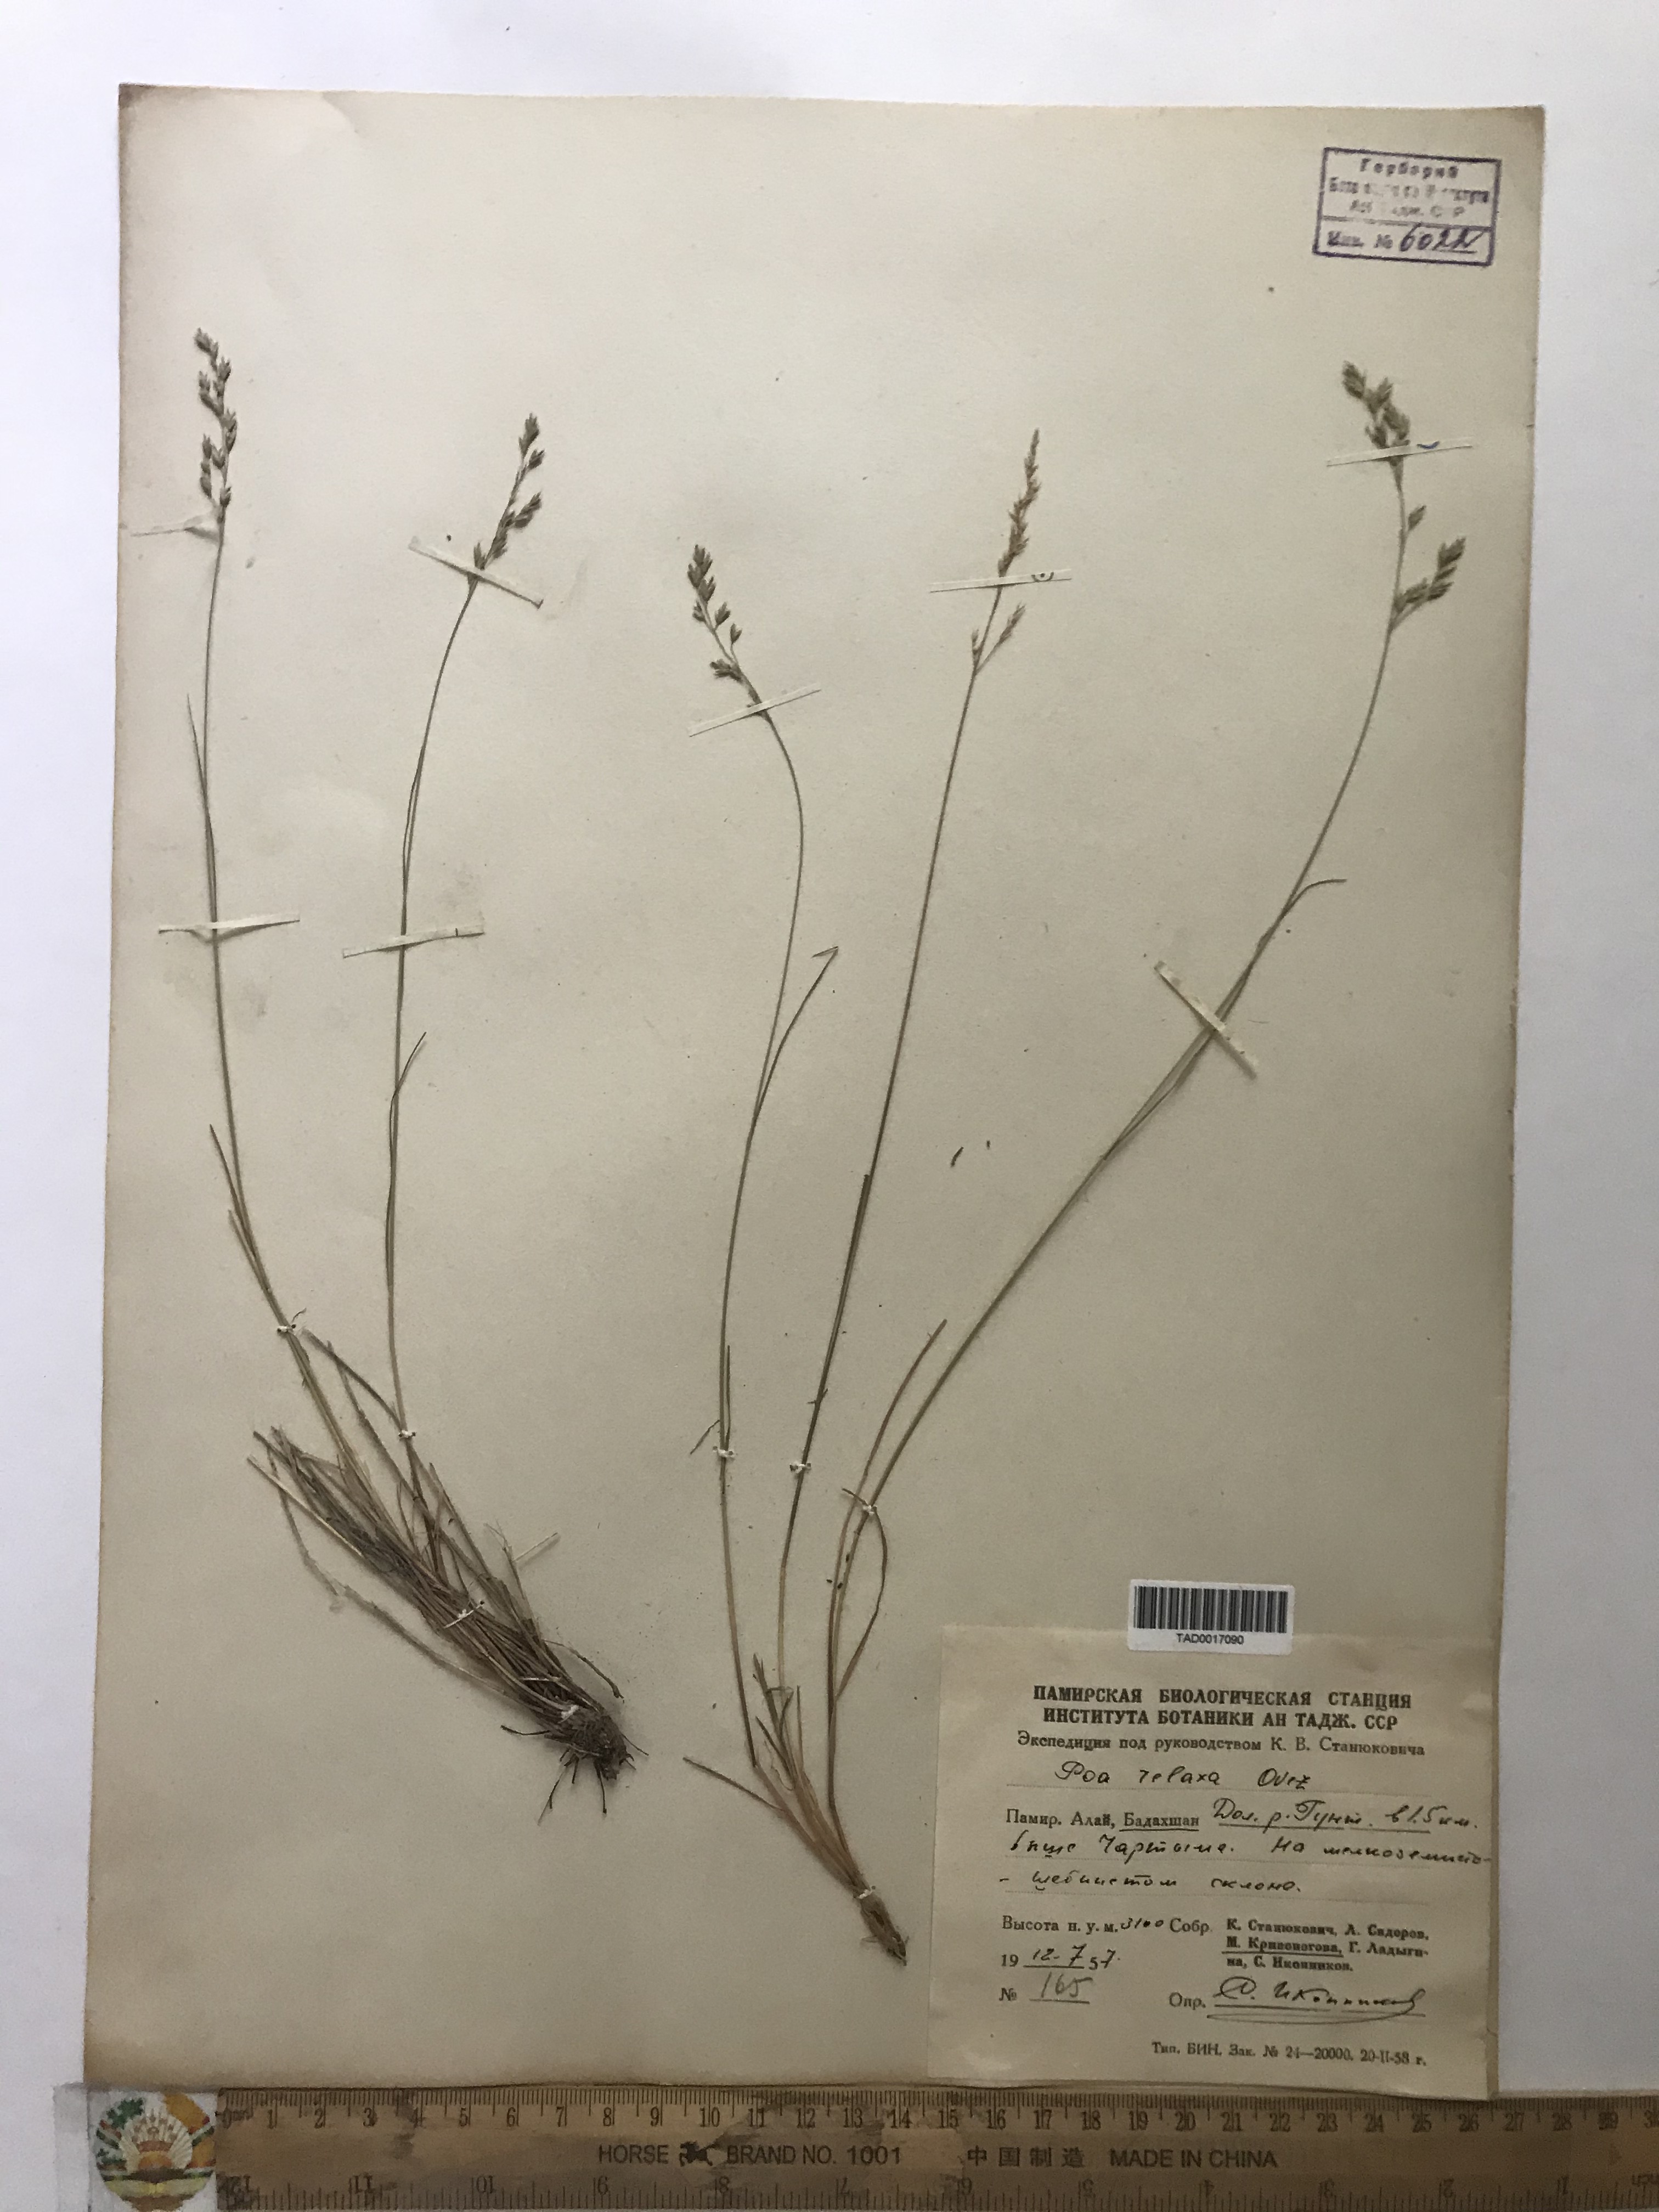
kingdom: Plantae
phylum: Tracheophyta
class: Liliopsida
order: Poales
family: Poaceae
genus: Poa
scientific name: Poa versicolor
